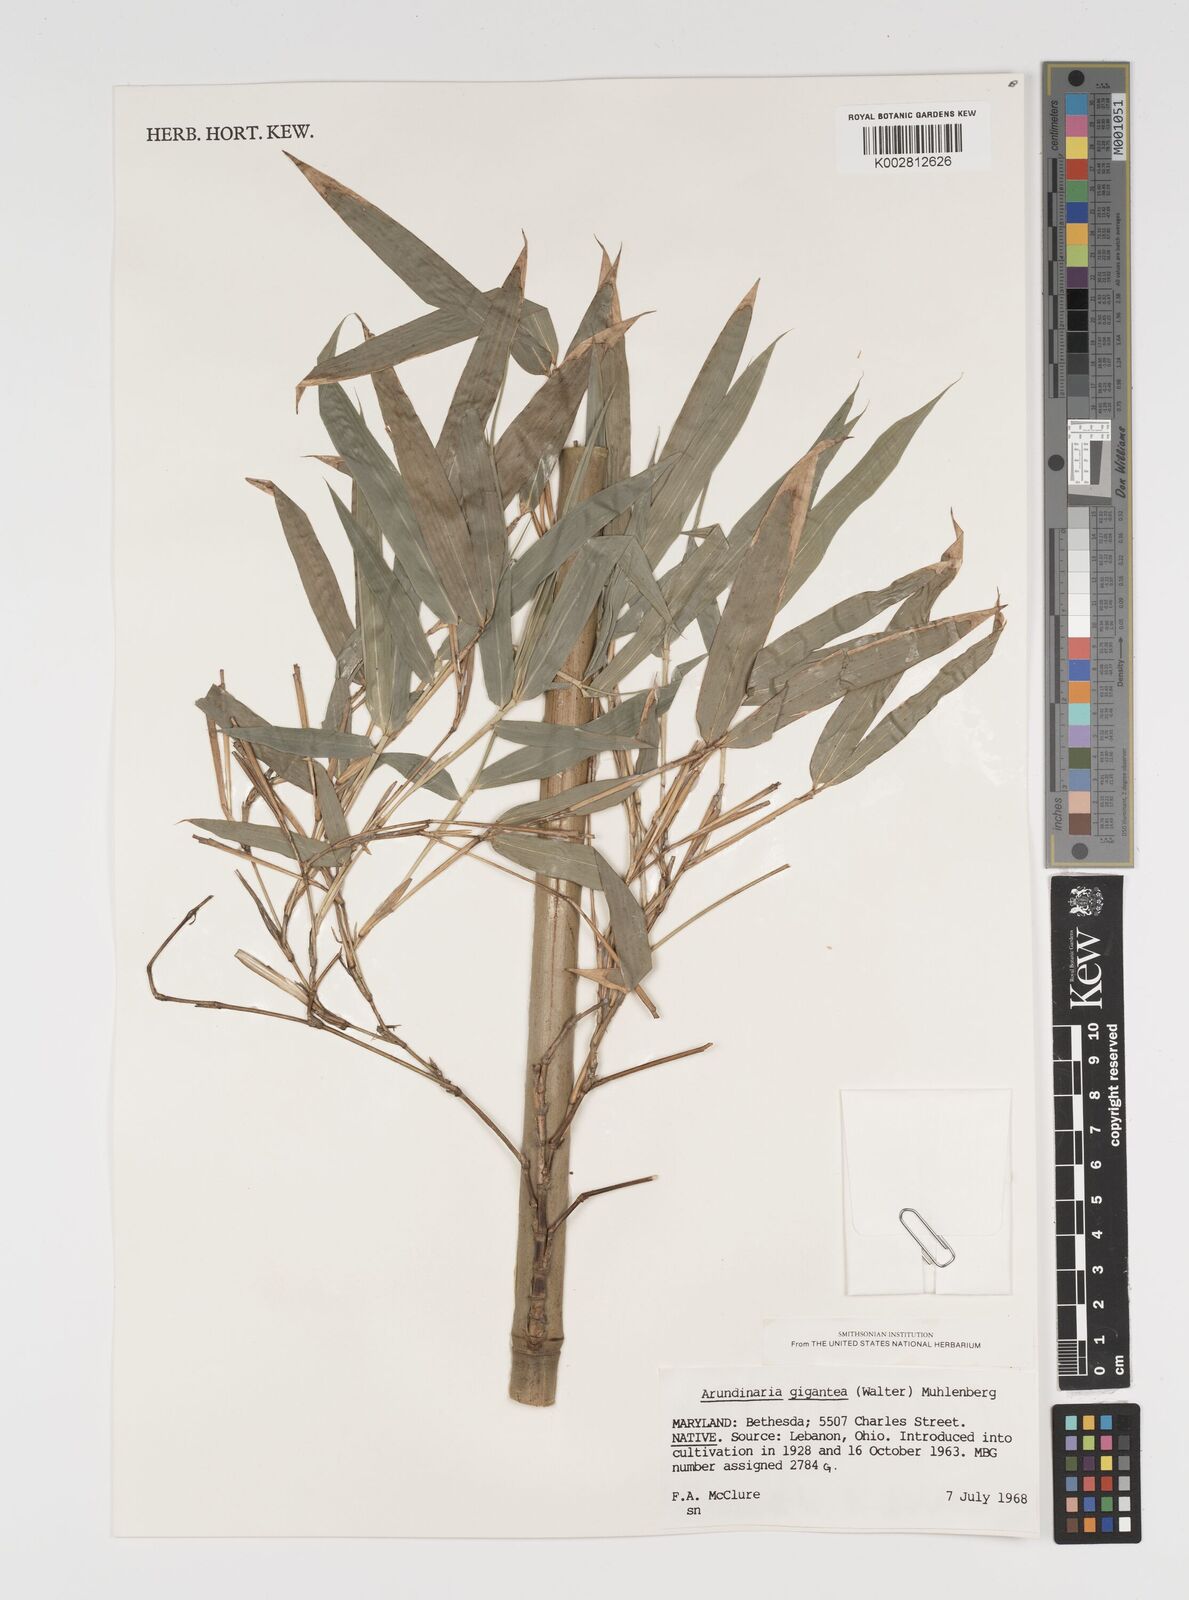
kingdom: Plantae
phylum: Tracheophyta
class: Liliopsida
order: Poales
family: Poaceae
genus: Arundinaria
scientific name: Arundinaria
